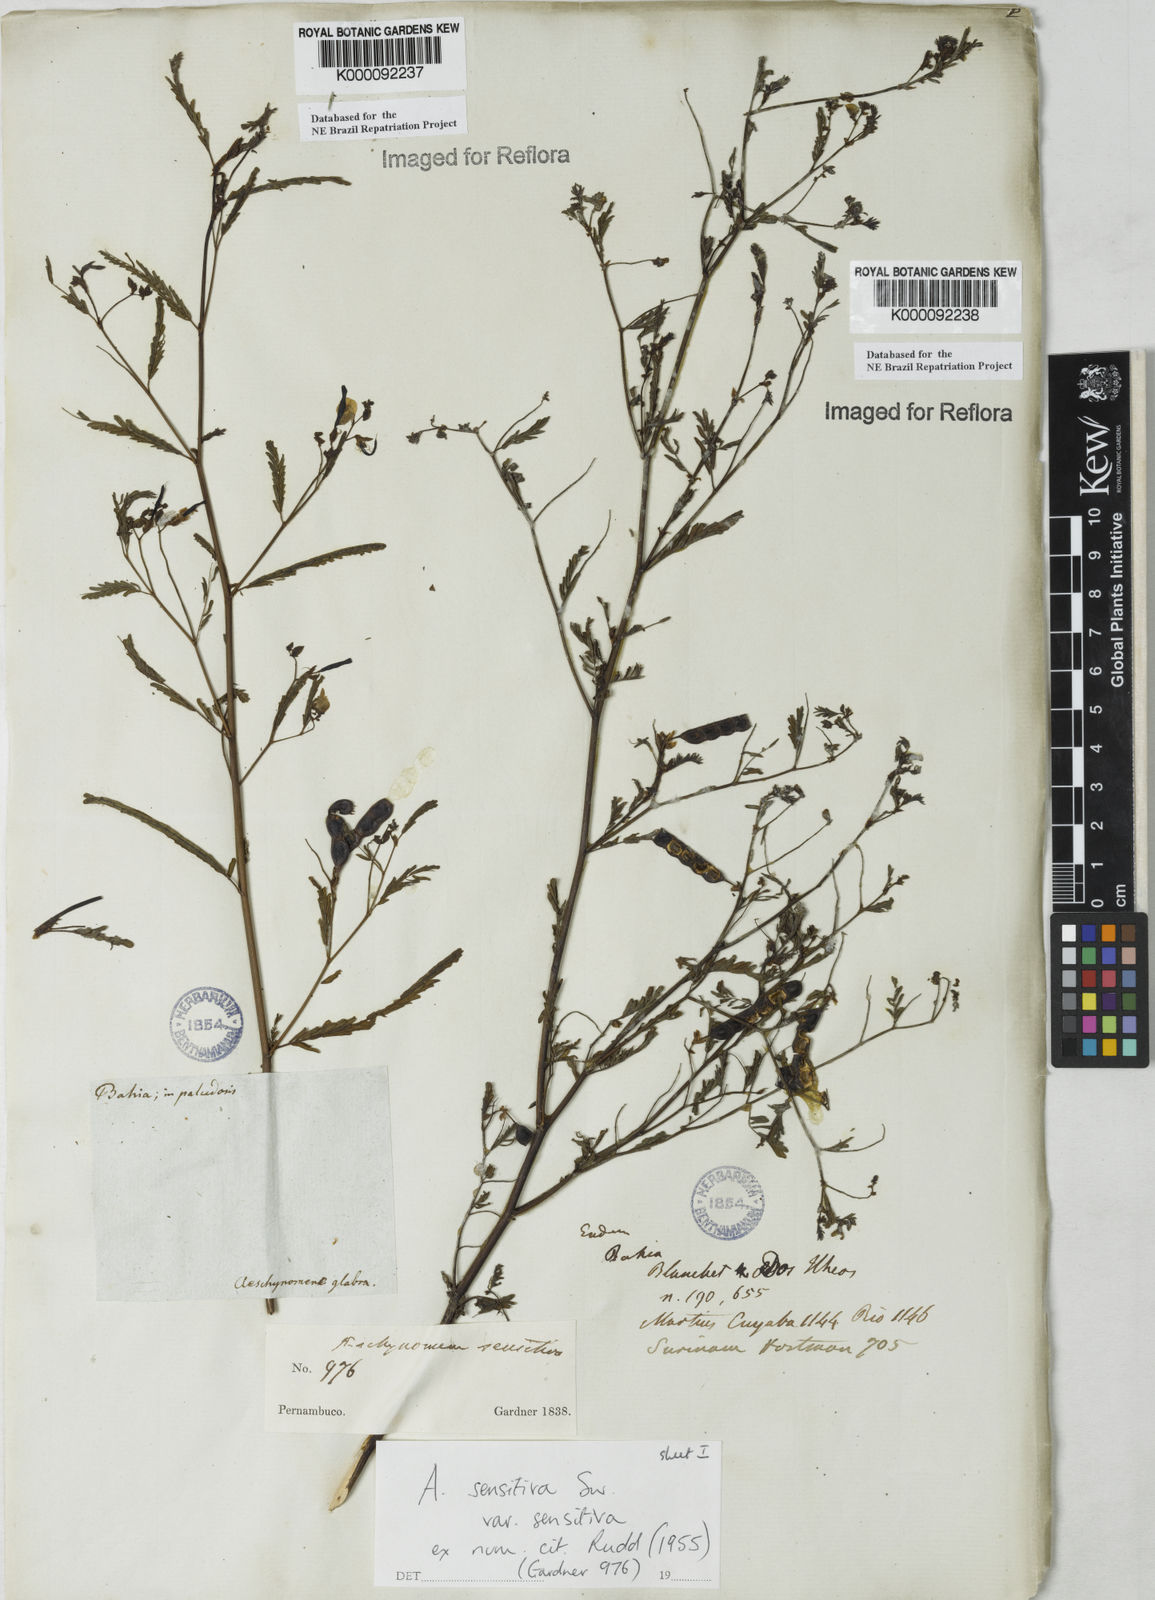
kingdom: Plantae
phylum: Tracheophyta
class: Magnoliopsida
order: Fabales
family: Fabaceae
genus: Aeschynomene
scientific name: Aeschynomene sensitiva
